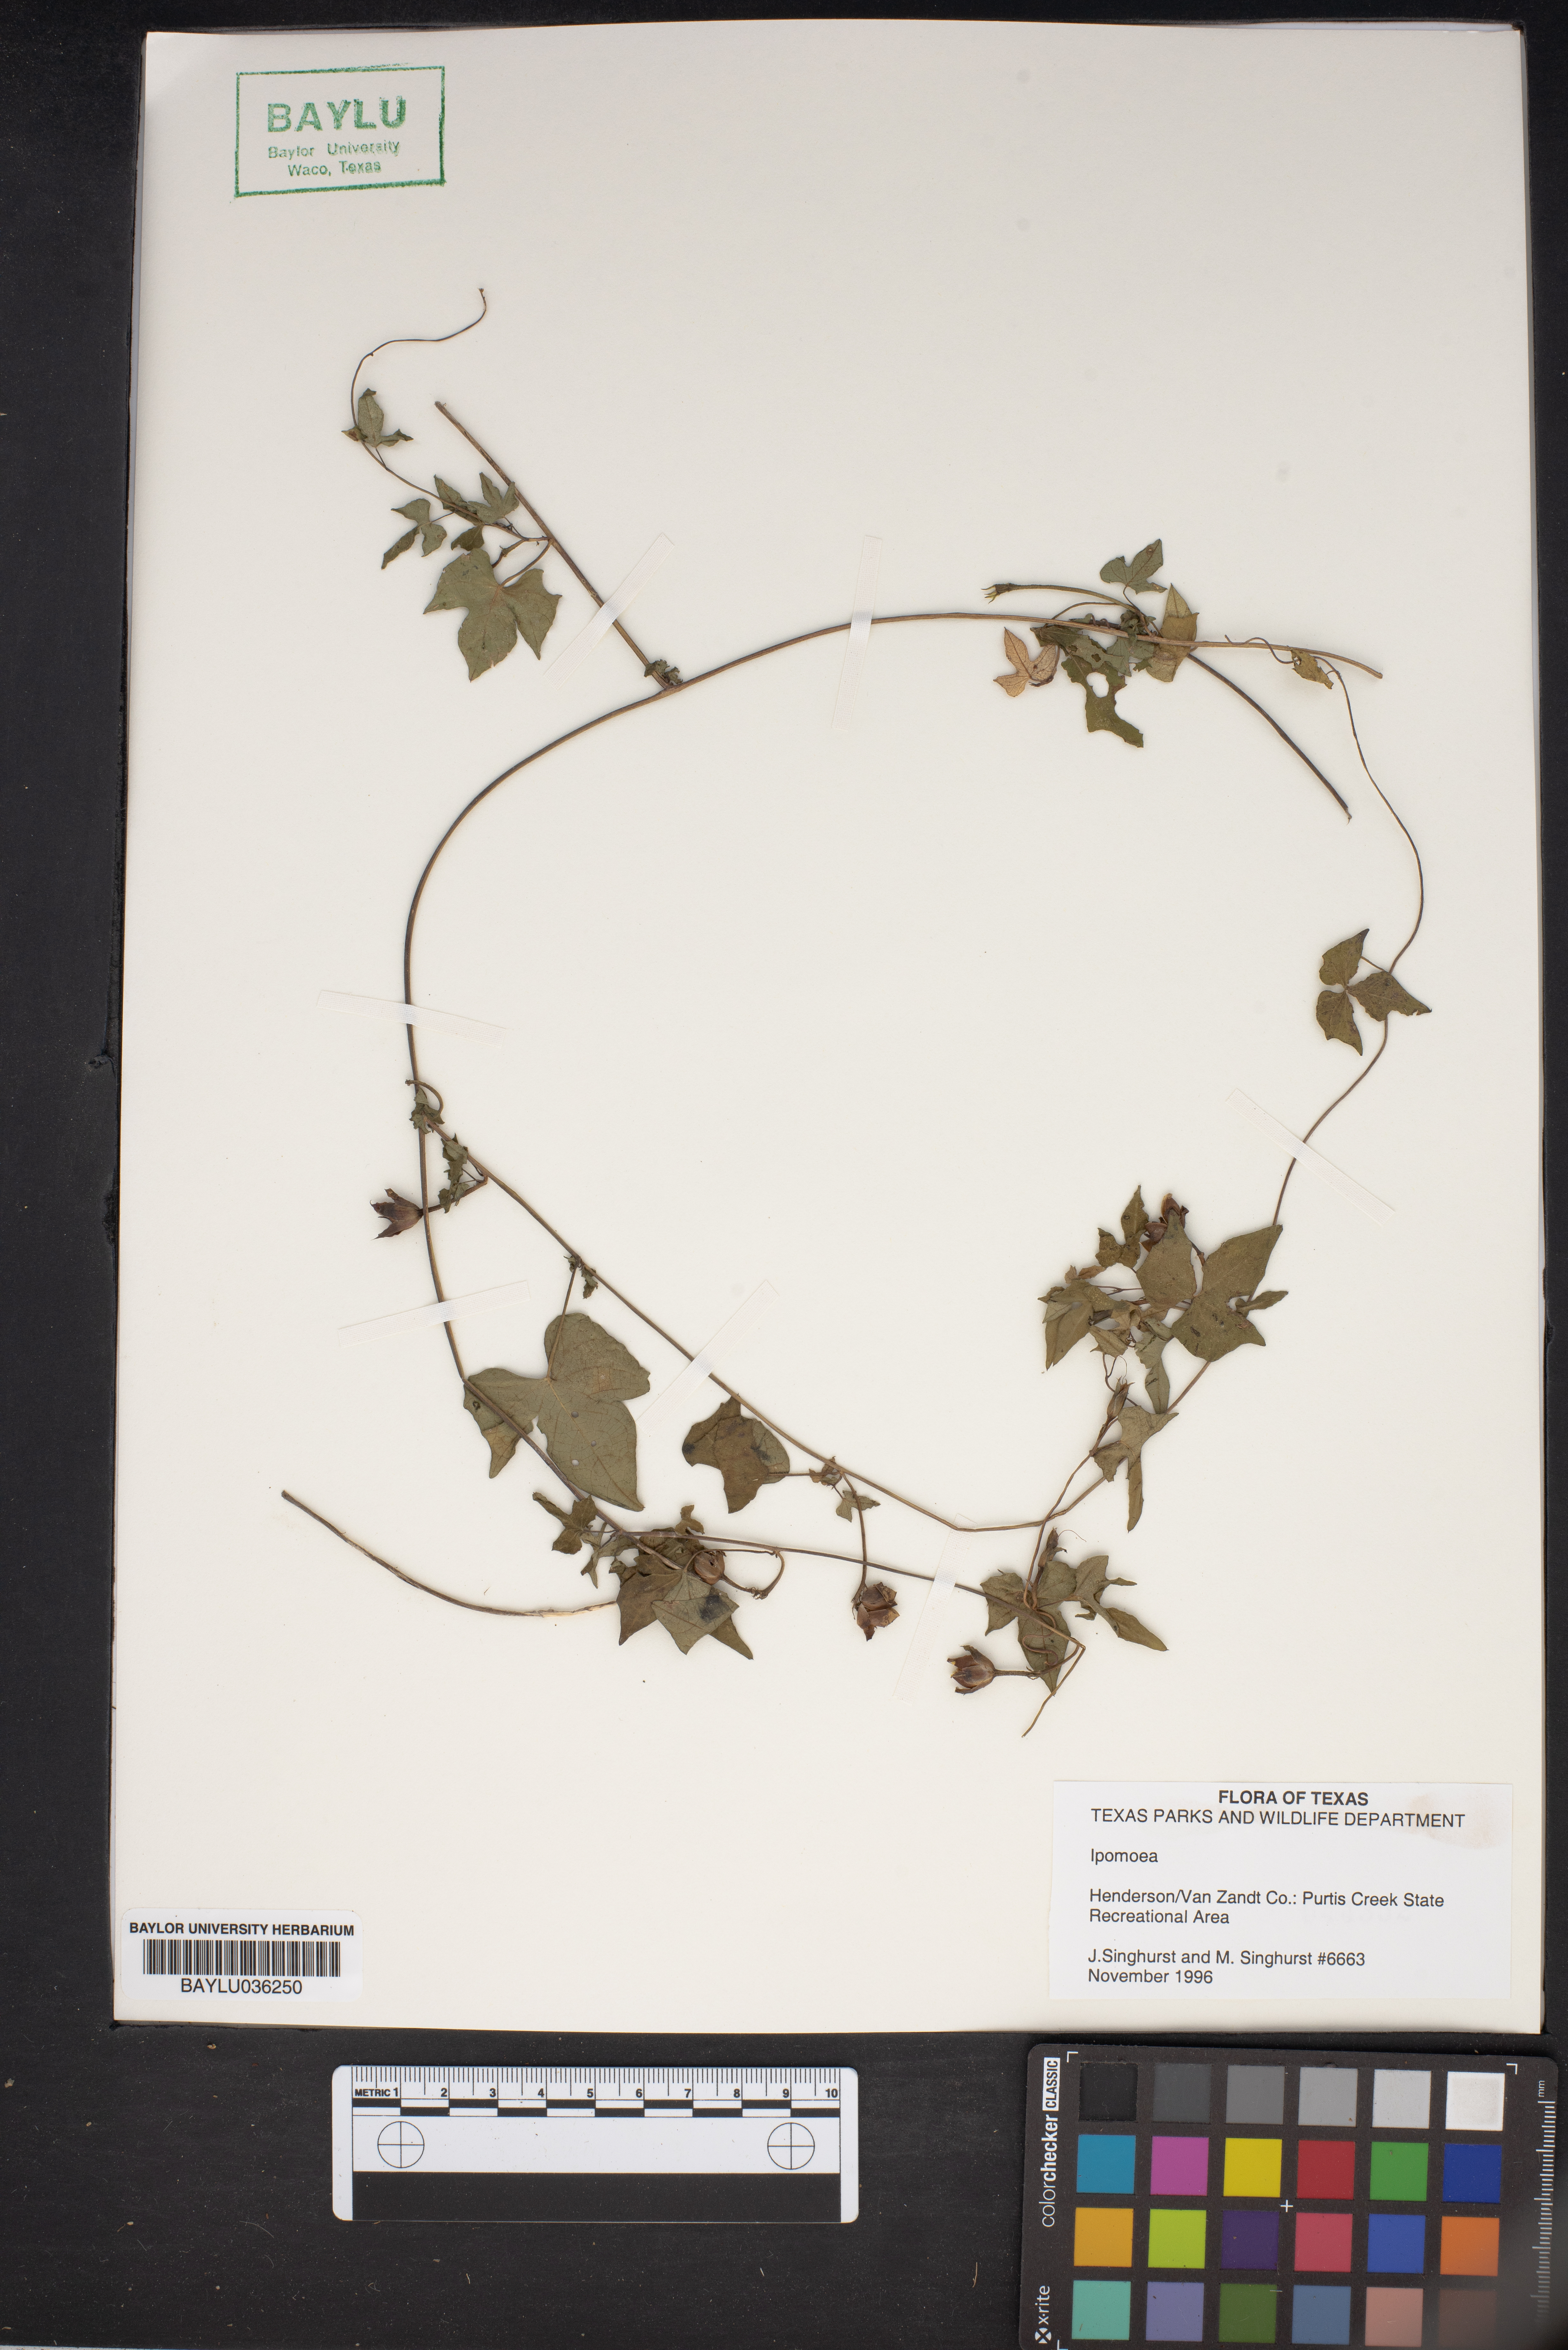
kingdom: Plantae
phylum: Tracheophyta
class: Magnoliopsida
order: Solanales
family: Convolvulaceae
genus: Ipomoea
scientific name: Ipomoea
